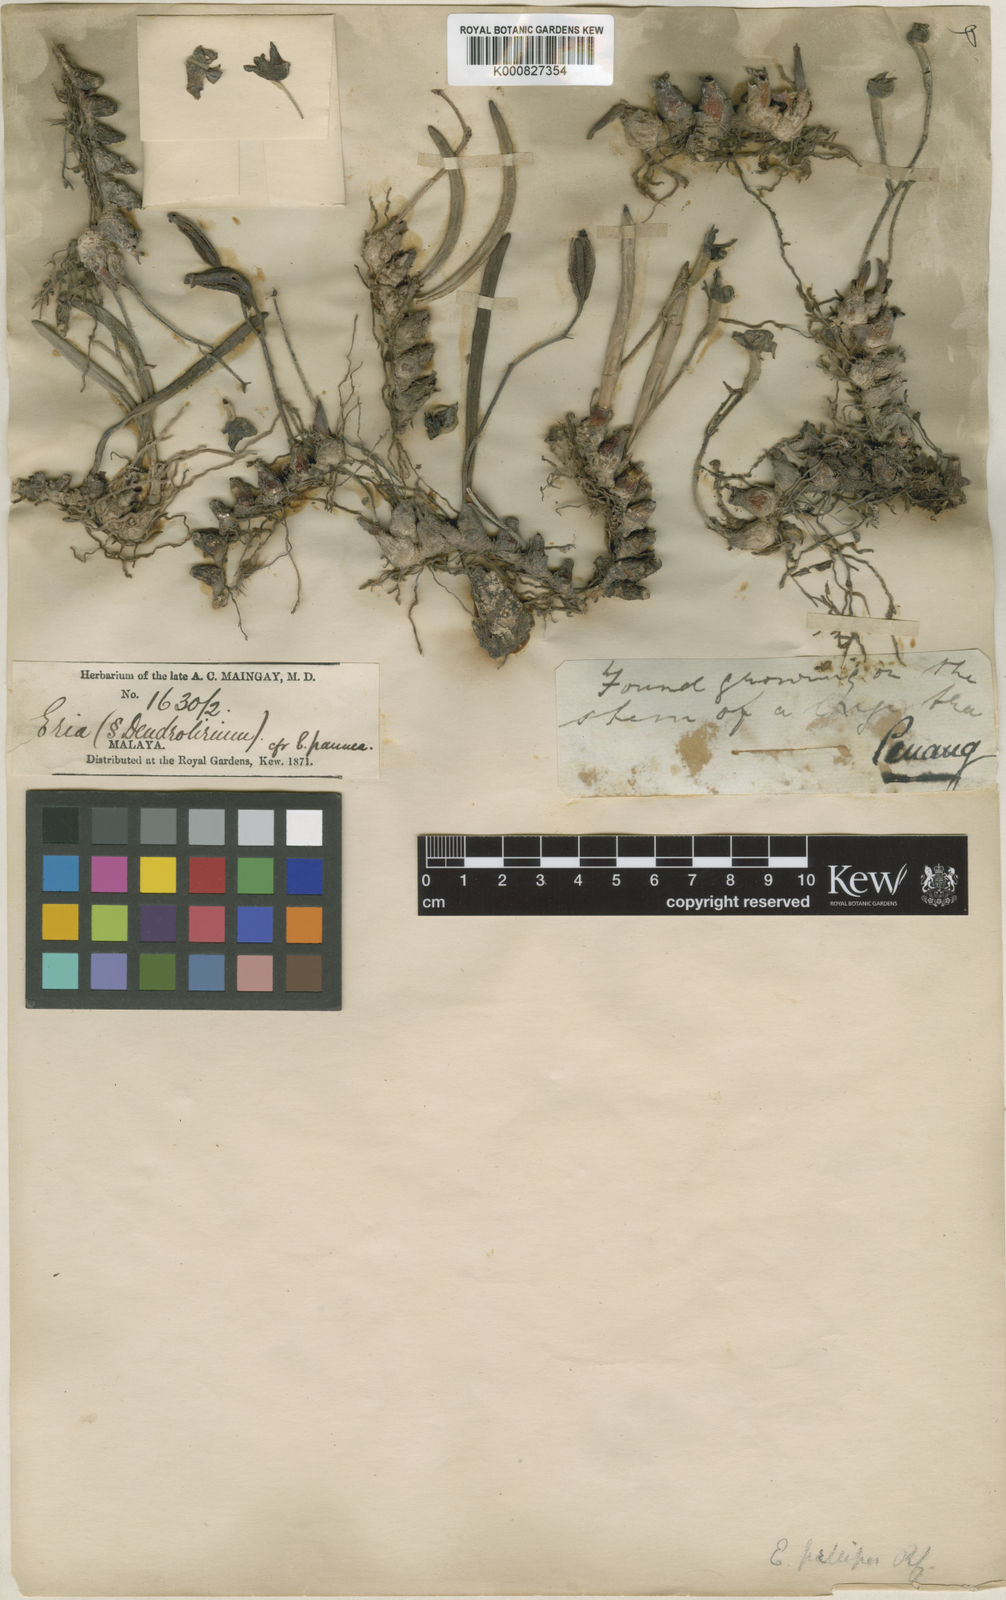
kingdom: Plantae
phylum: Tracheophyta
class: Liliopsida
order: Asparagales
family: Orchidaceae
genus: Strongyleria
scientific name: Strongyleria pellipes
